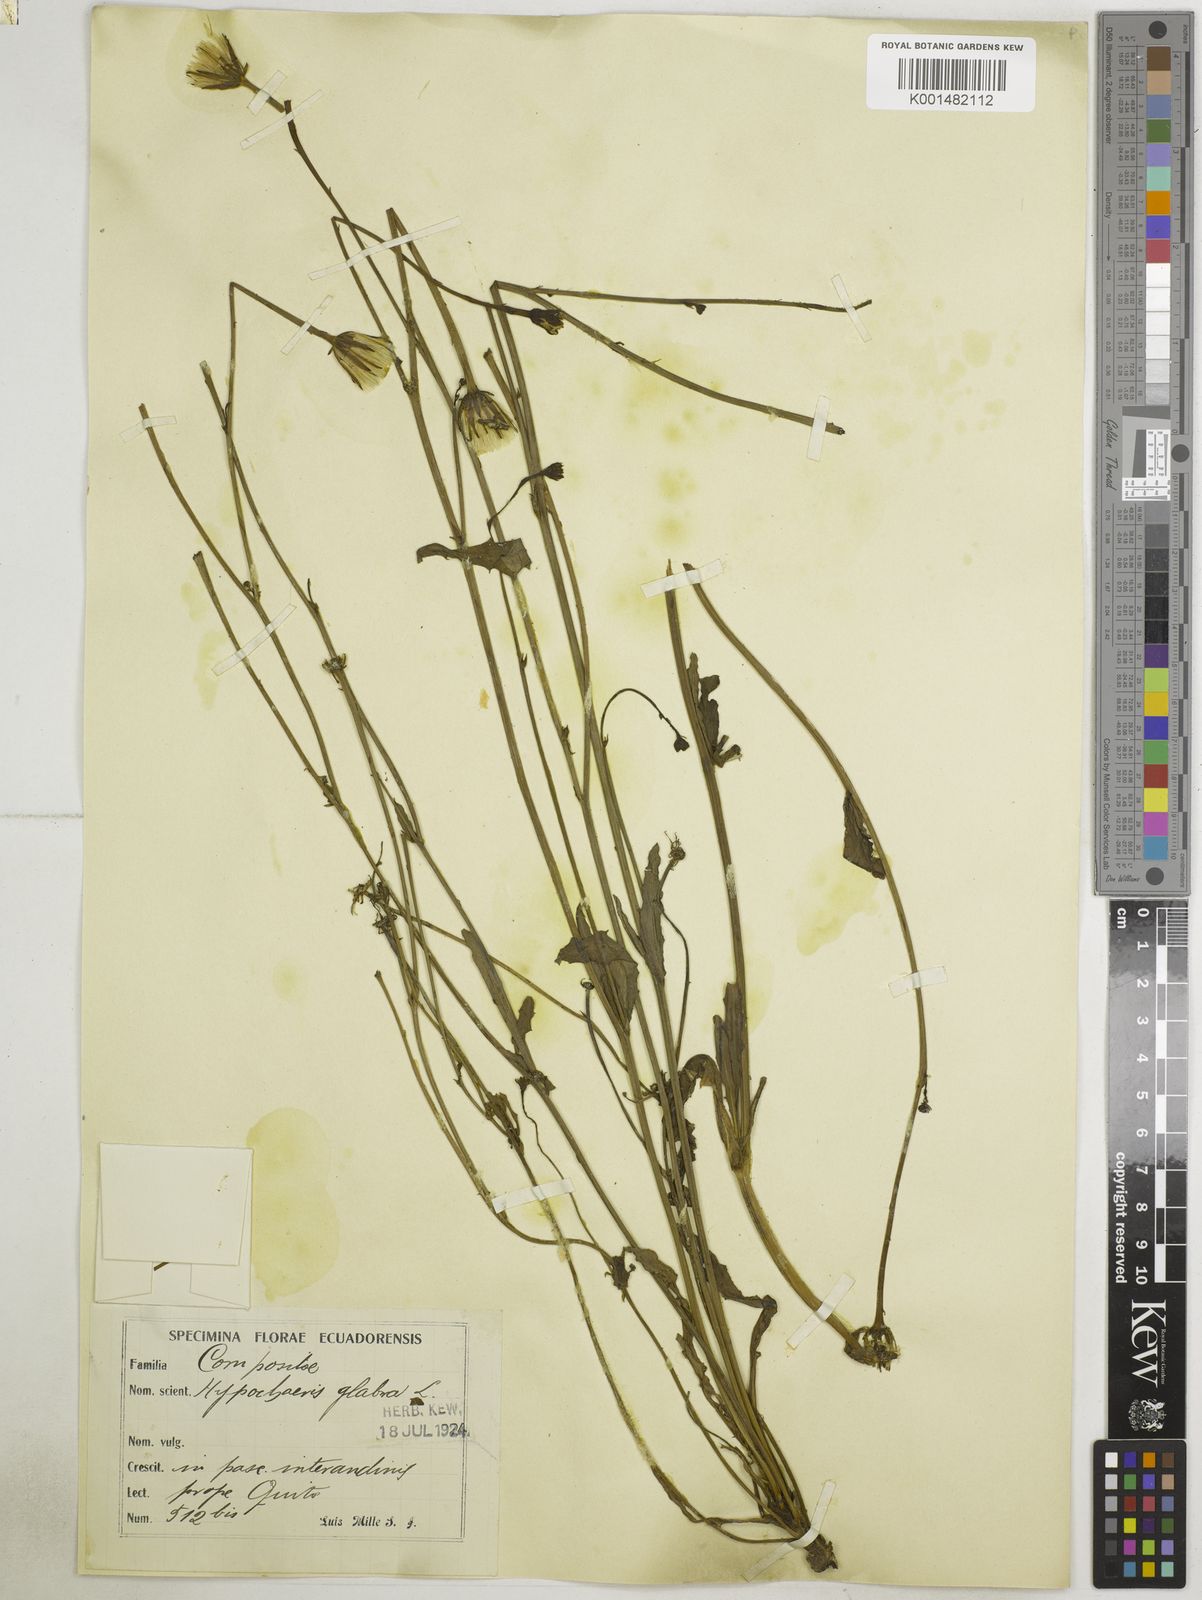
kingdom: Plantae
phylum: Tracheophyta
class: Magnoliopsida
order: Asterales
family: Asteraceae
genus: Hypochaeris
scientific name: Hypochaeris glabra
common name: Smooth catsear
